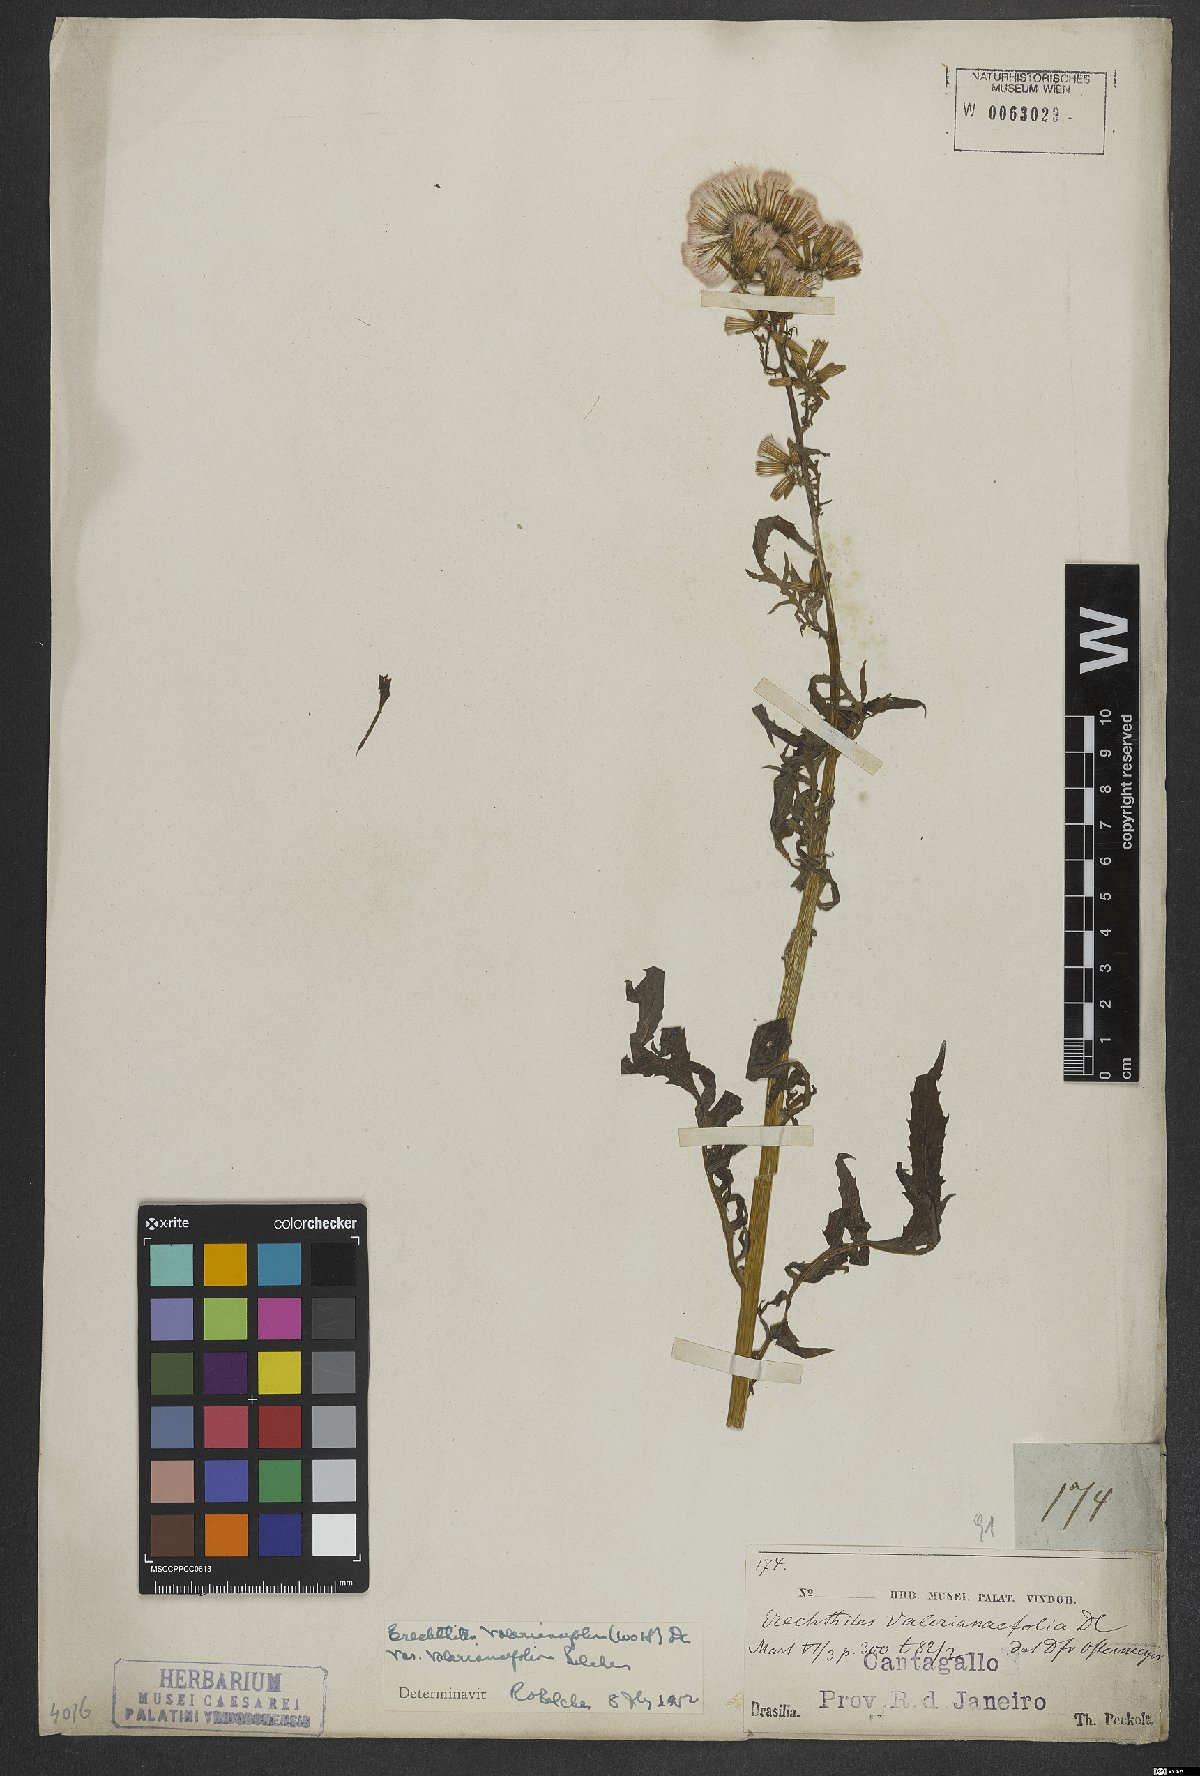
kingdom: Plantae
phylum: Tracheophyta
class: Magnoliopsida
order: Asterales
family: Asteraceae
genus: Erechtites
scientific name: Erechtites valerianifolius
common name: Tropical burnweed
